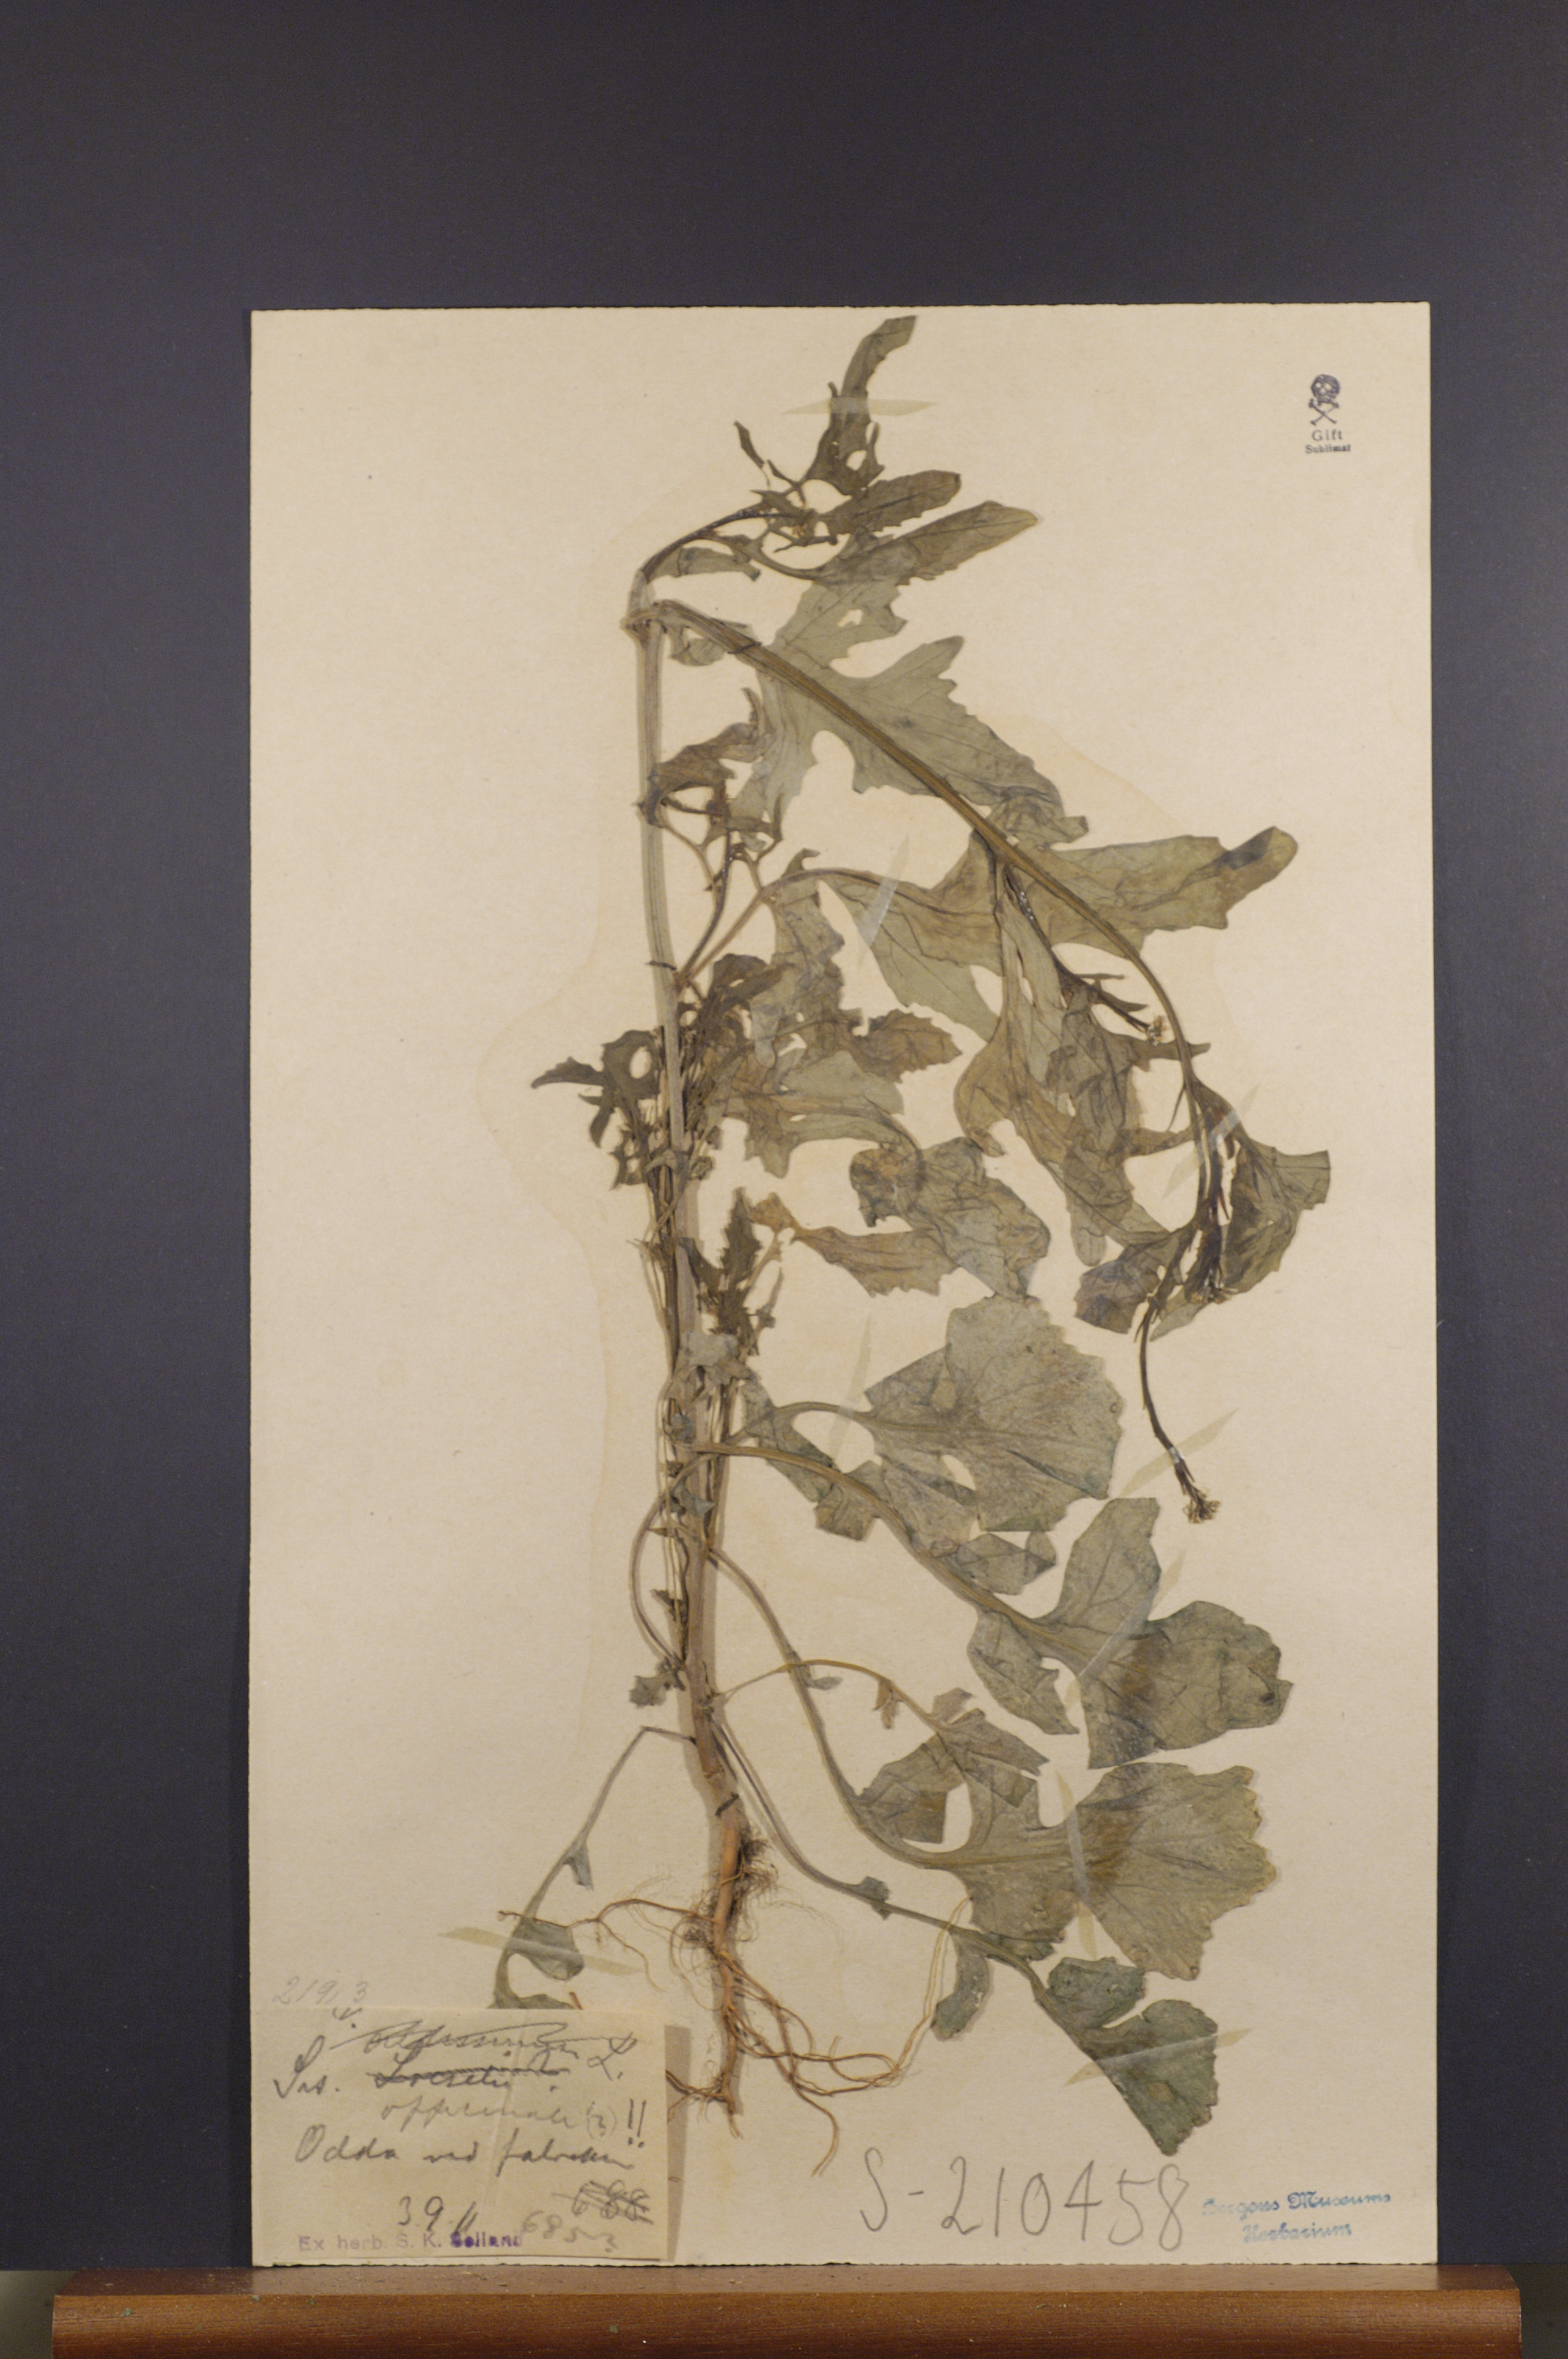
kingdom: Plantae
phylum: Tracheophyta
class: Magnoliopsida
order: Brassicales
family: Brassicaceae
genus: Sisymbrium
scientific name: Sisymbrium officinale
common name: Hedge mustard
